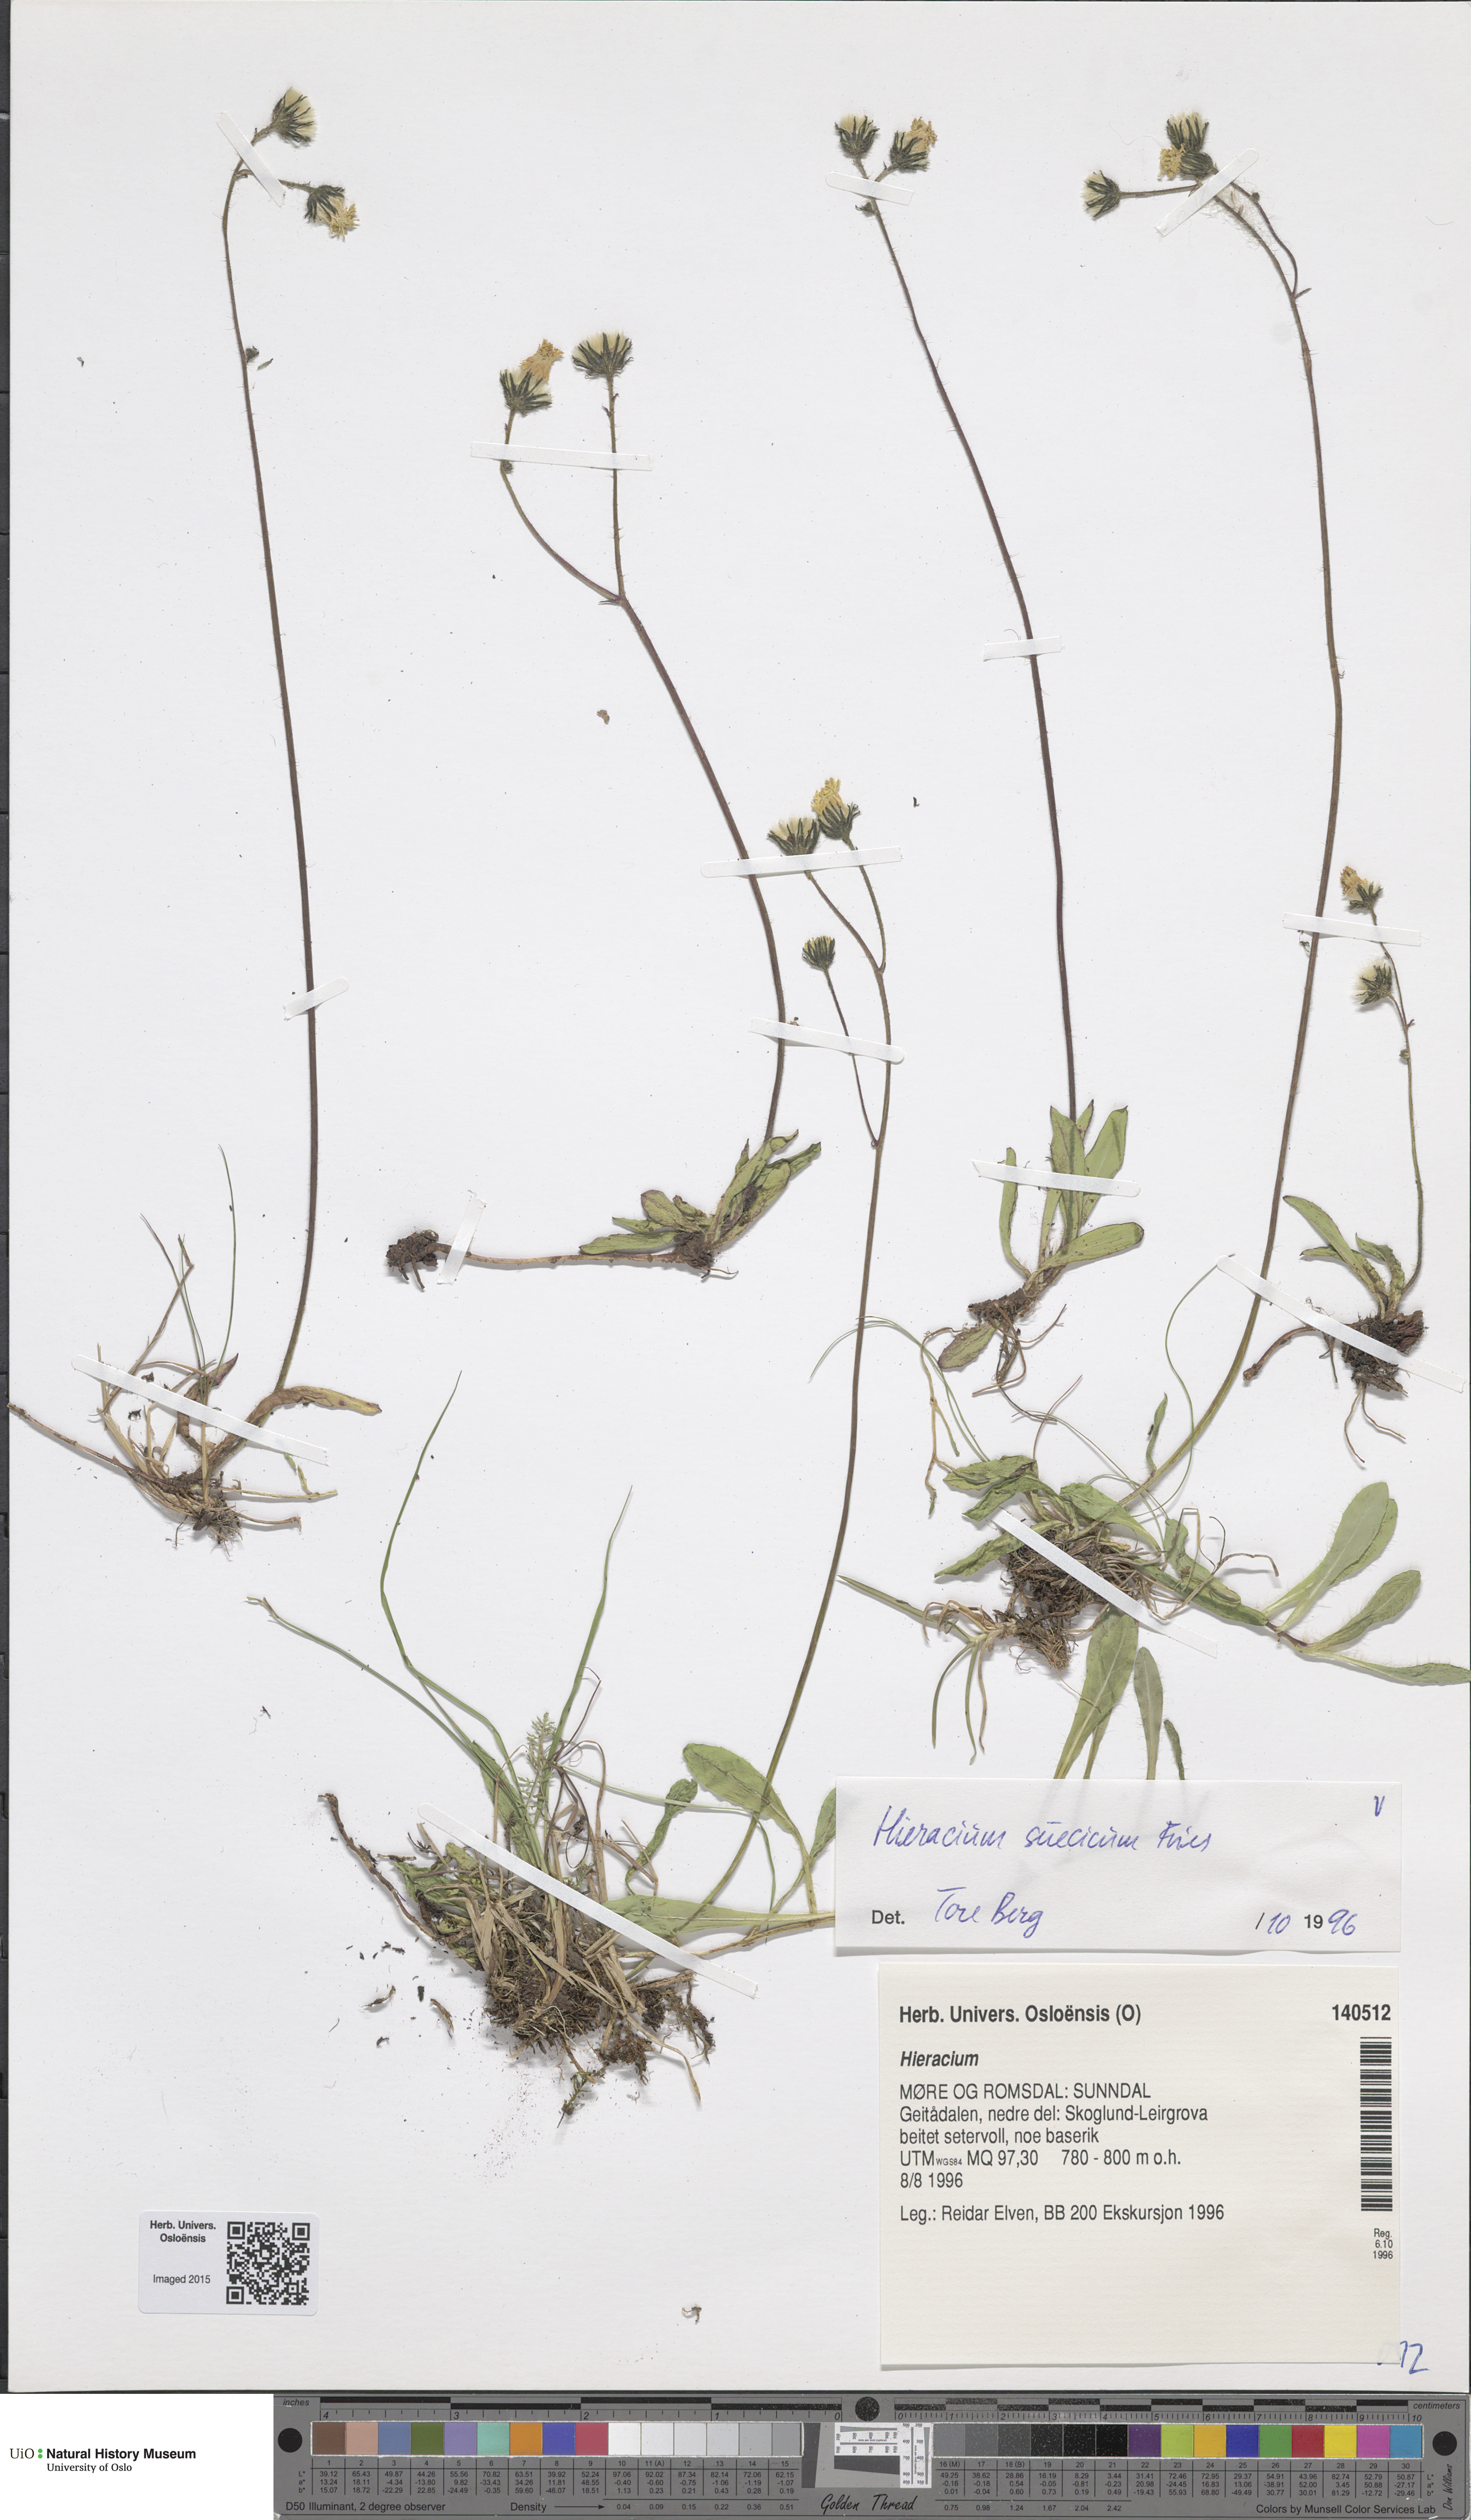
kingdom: Plantae
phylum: Tracheophyta
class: Magnoliopsida
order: Asterales
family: Asteraceae
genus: Pilosella
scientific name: Pilosella dubia
